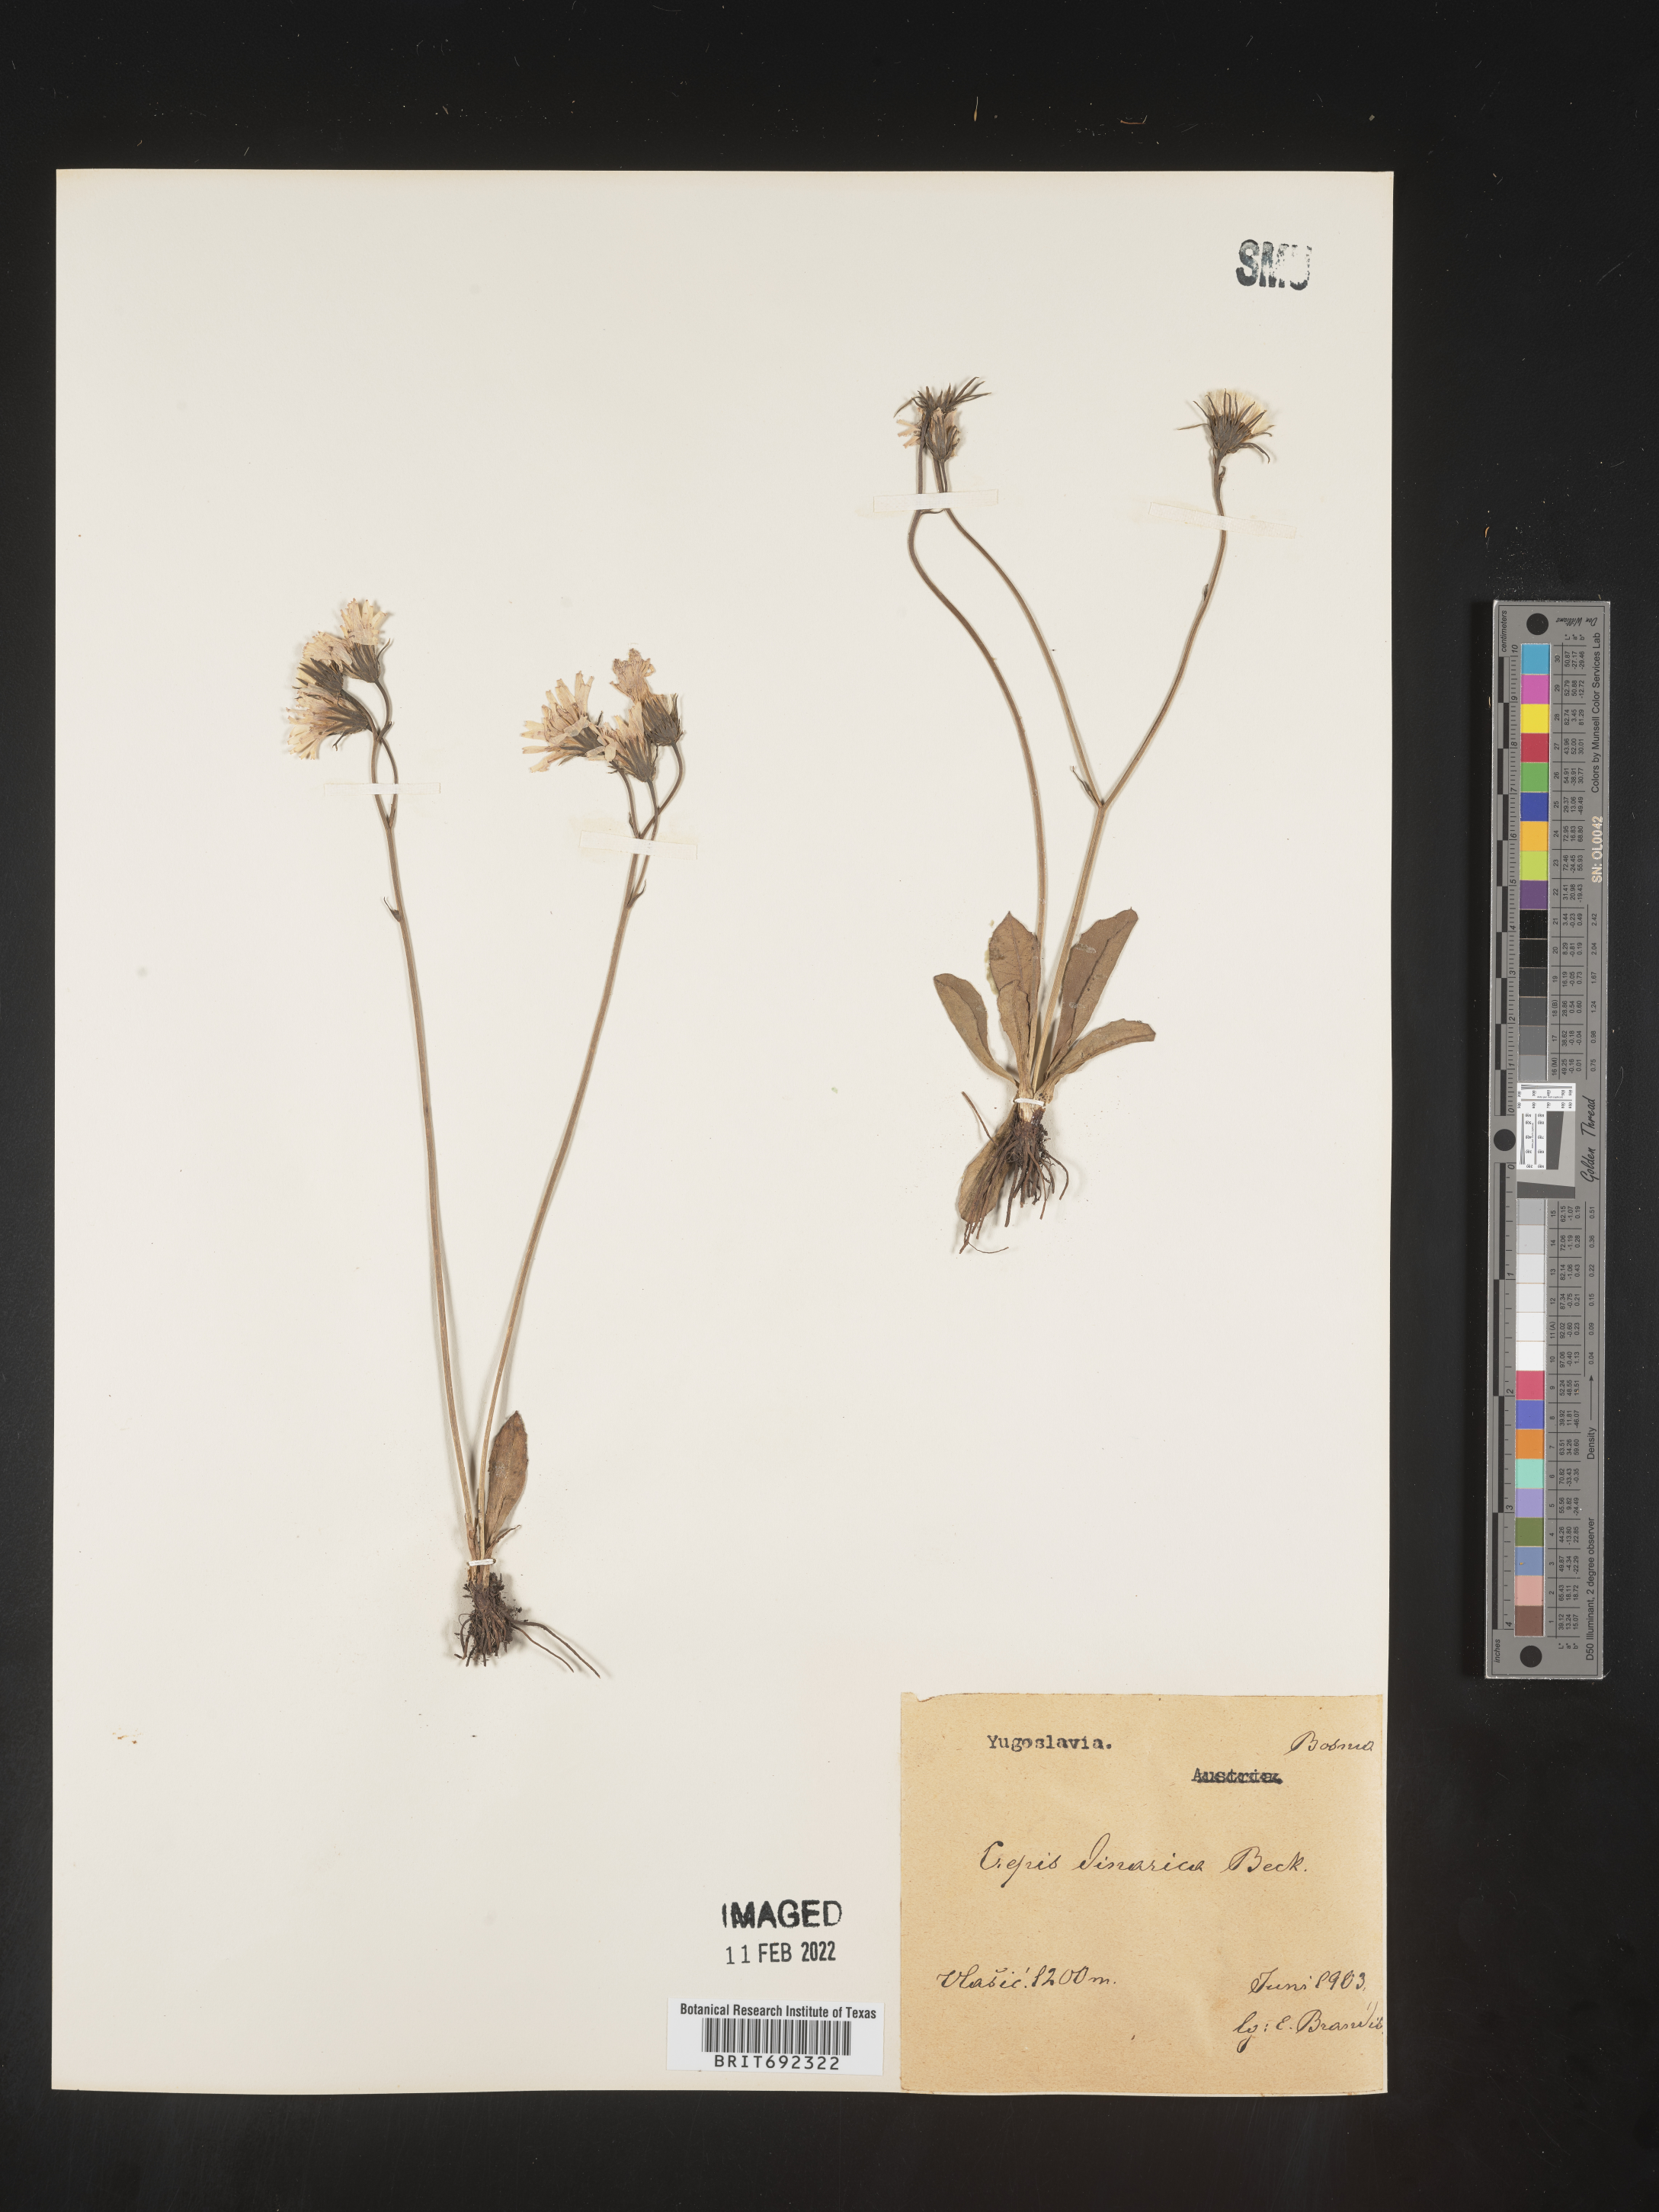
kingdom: Plantae
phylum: Tracheophyta
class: Magnoliopsida
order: Asterales
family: Asteraceae
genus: Crepis
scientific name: Crepis
